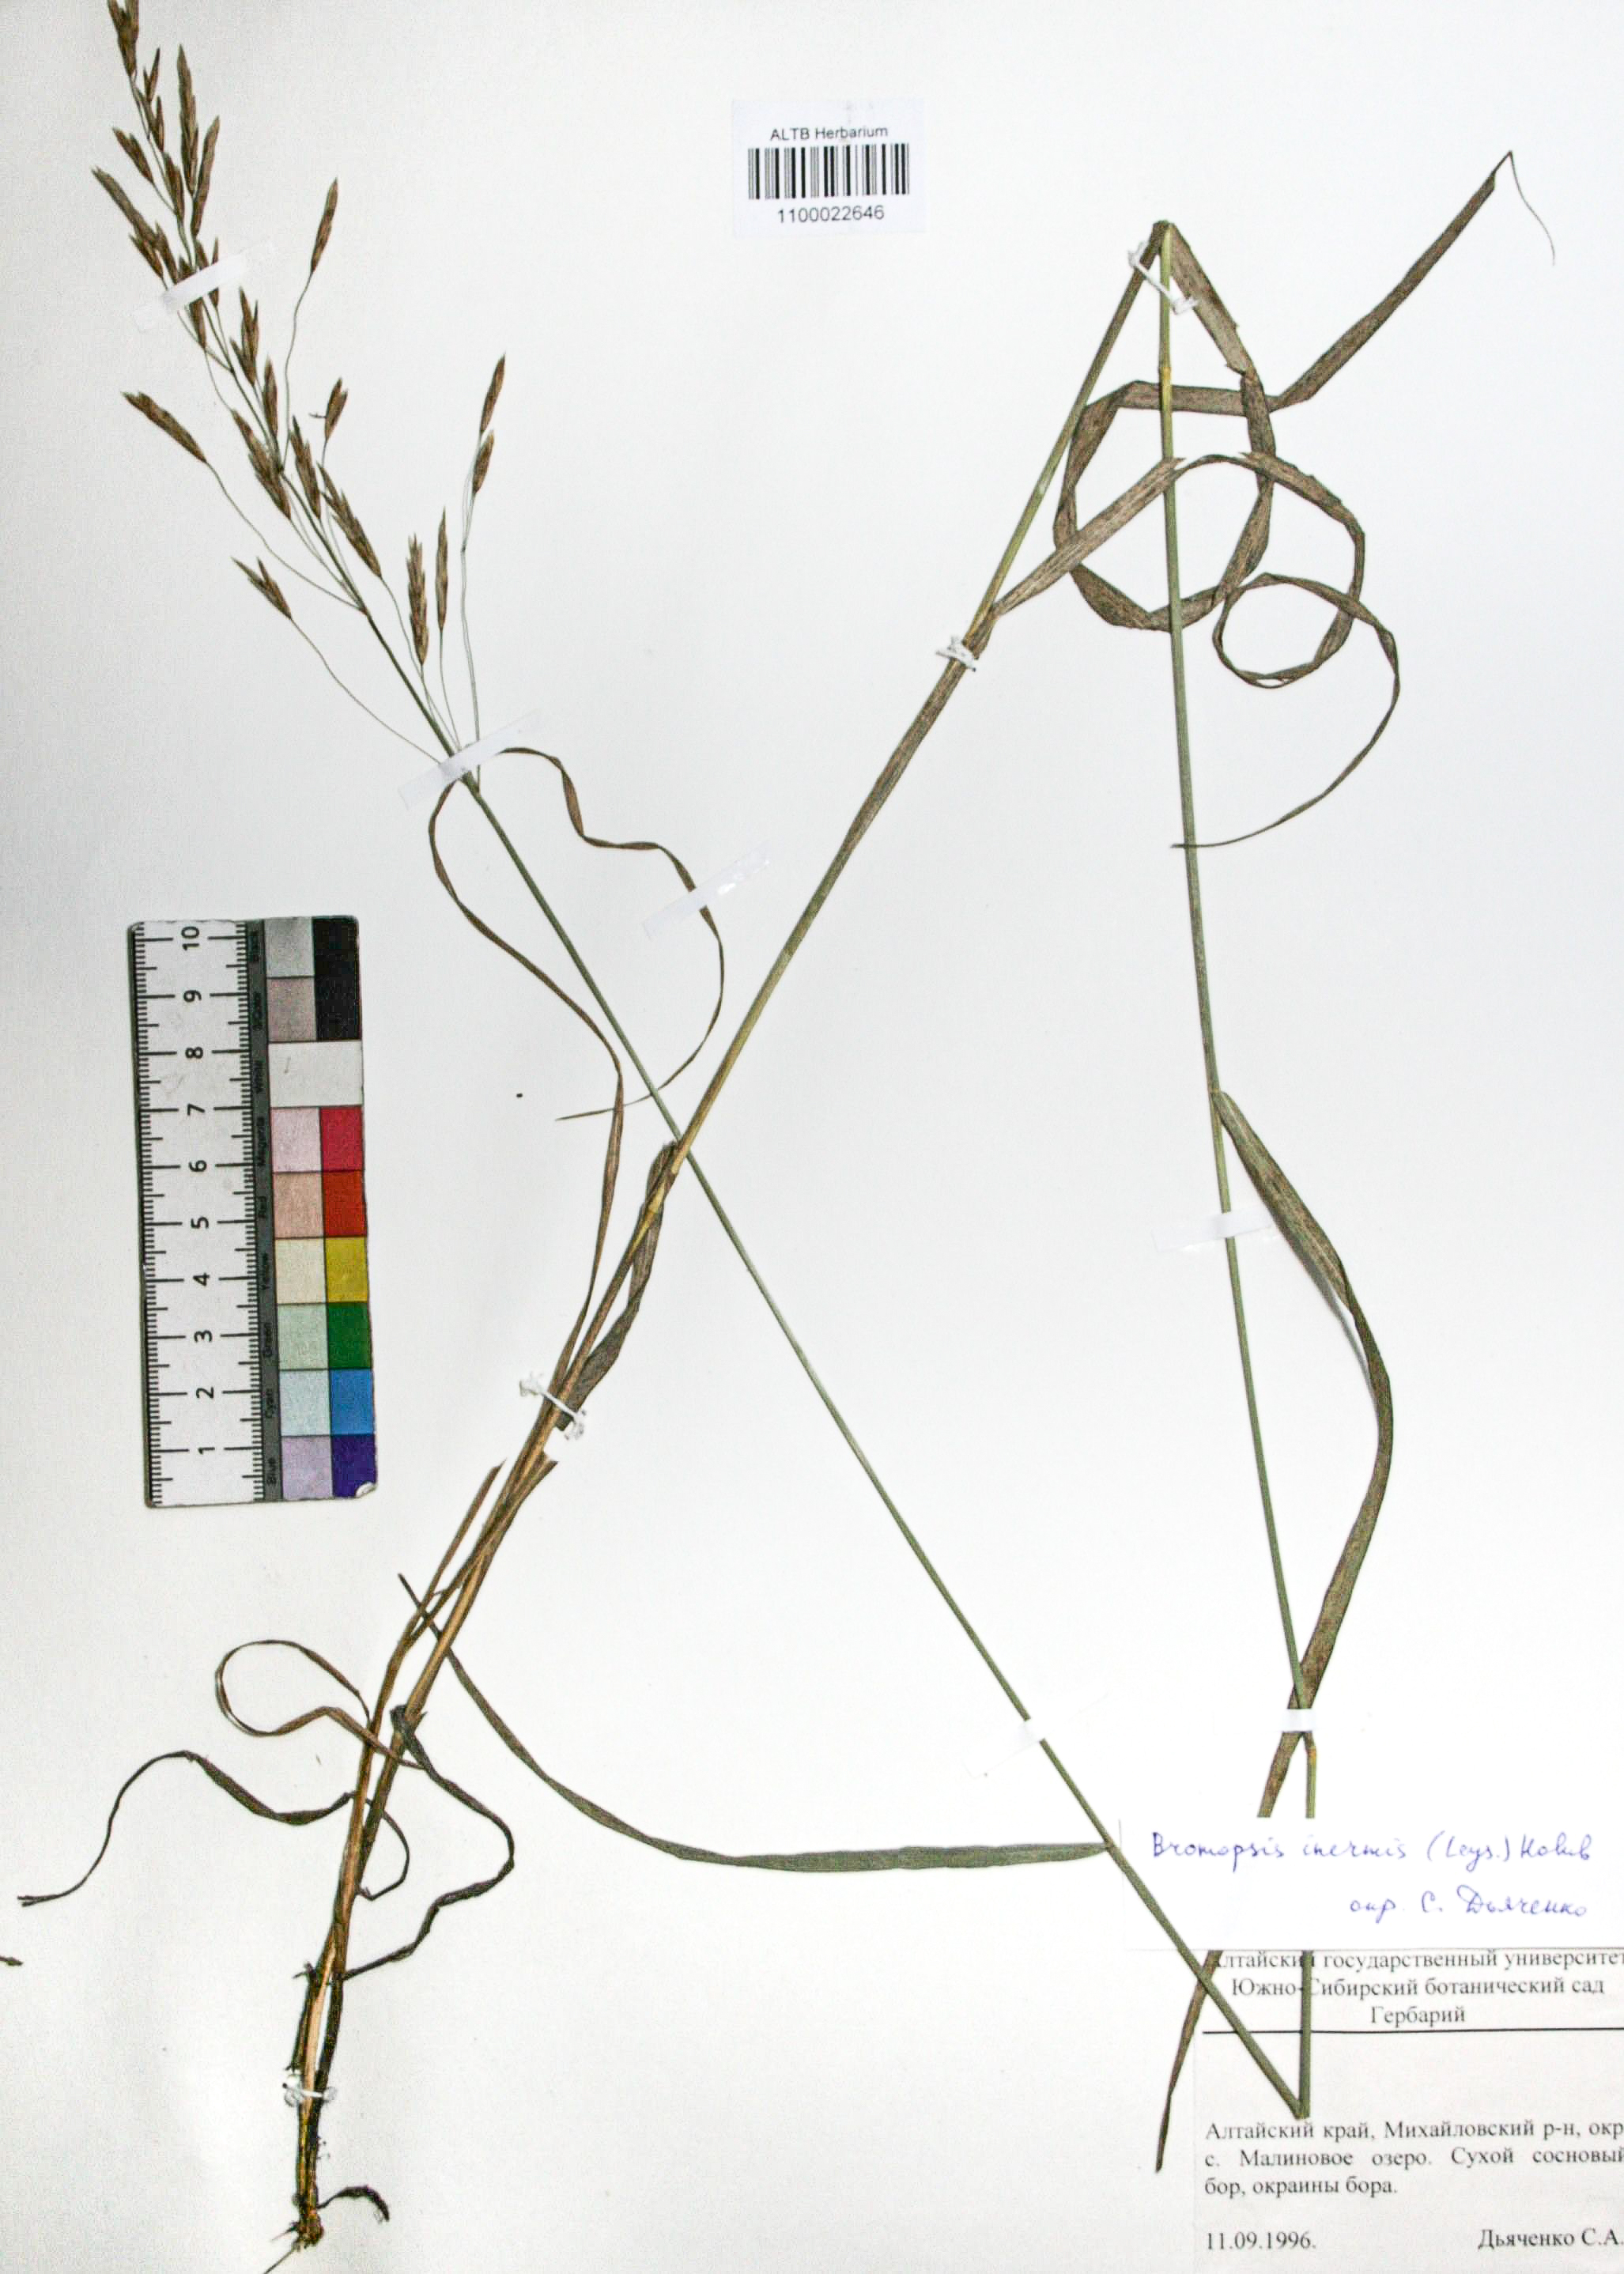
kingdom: Plantae
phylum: Tracheophyta
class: Liliopsida
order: Poales
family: Poaceae
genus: Bromus
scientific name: Bromus inermis
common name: Smooth brome
